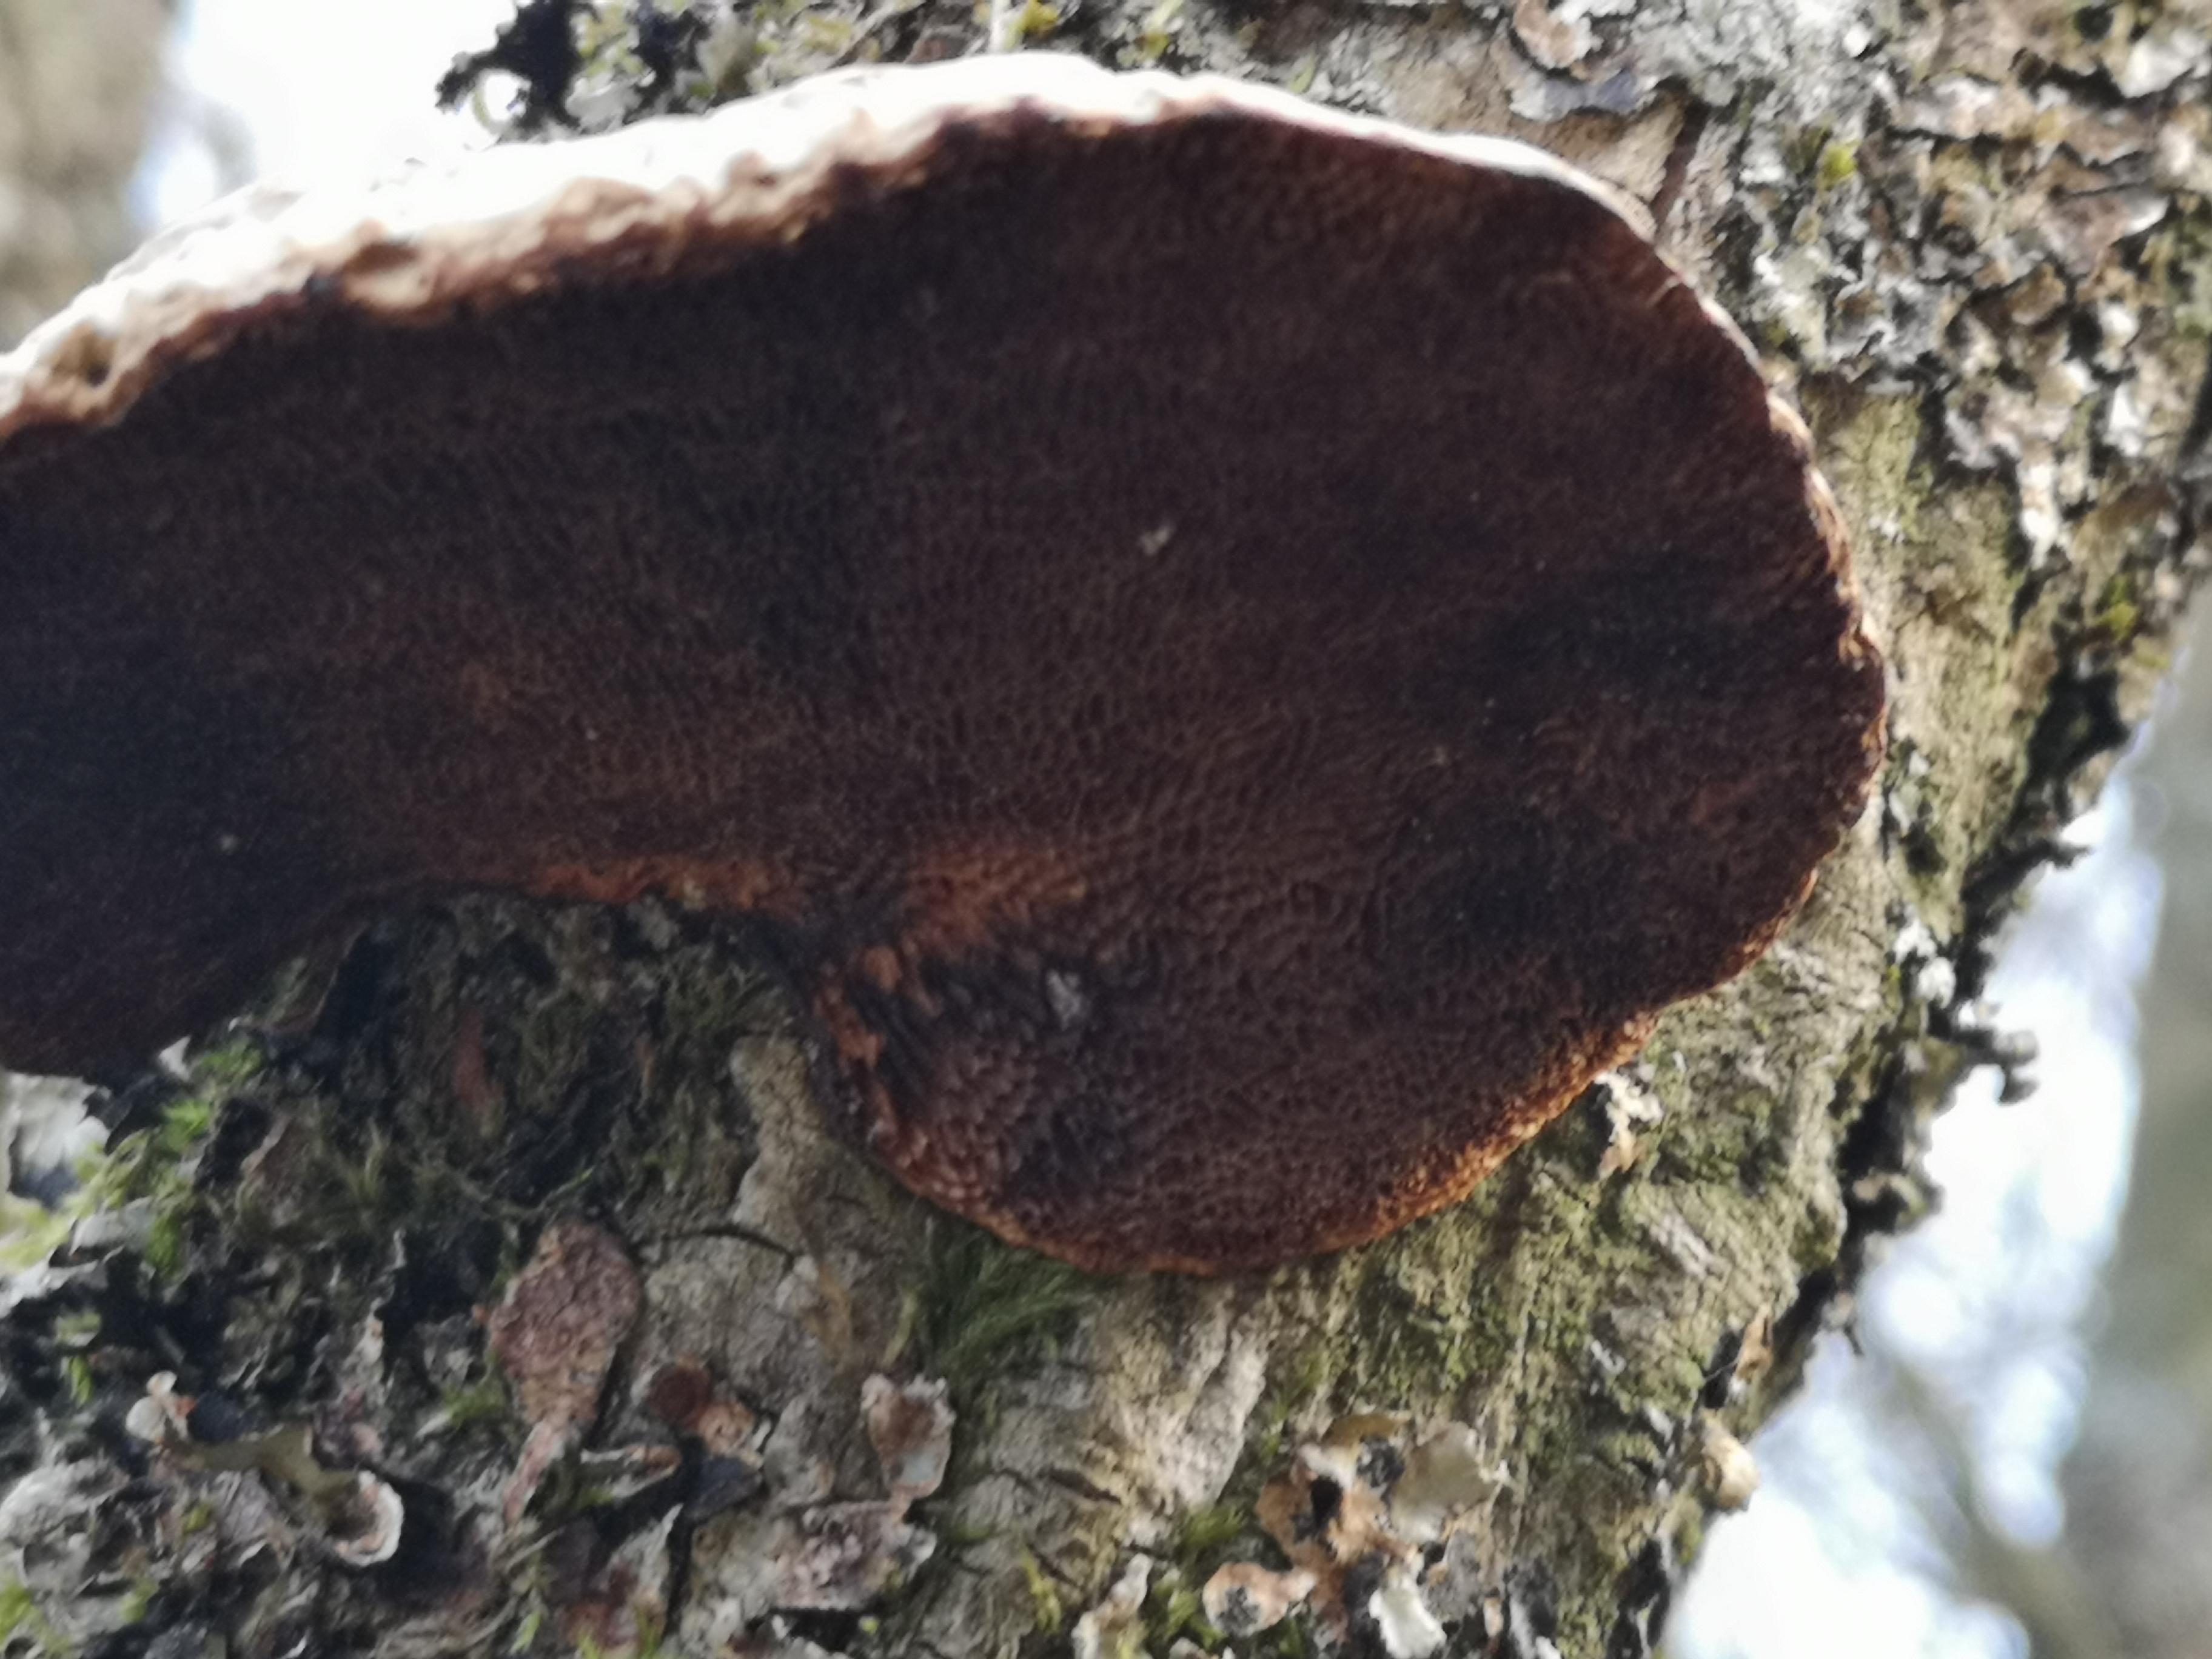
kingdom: Fungi
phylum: Basidiomycota
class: Agaricomycetes
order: Polyporales
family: Polyporaceae
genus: Daedaleopsis
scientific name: Daedaleopsis confragosa
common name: rødmende læderporesvamp
